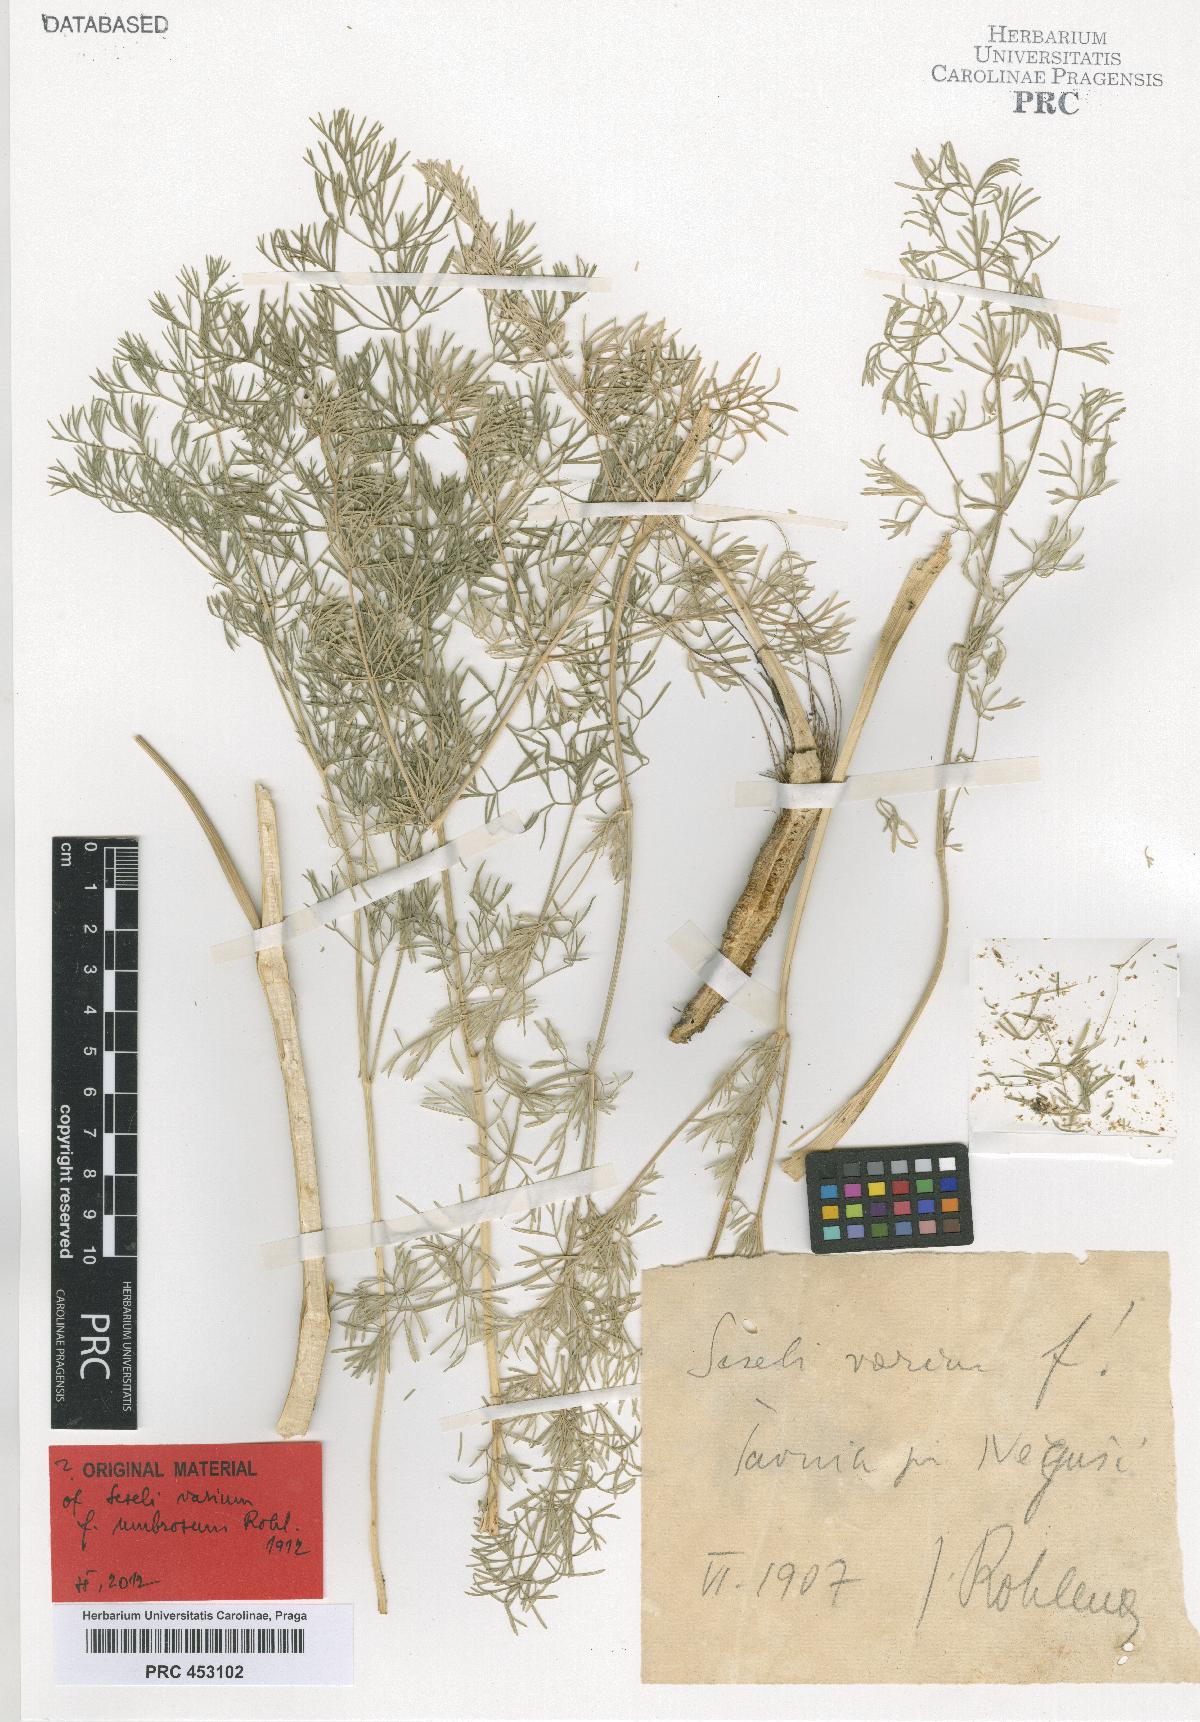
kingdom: Plantae
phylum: Tracheophyta
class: Magnoliopsida
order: Apiales
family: Apiaceae
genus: Seseli
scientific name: Seseli pallasii
